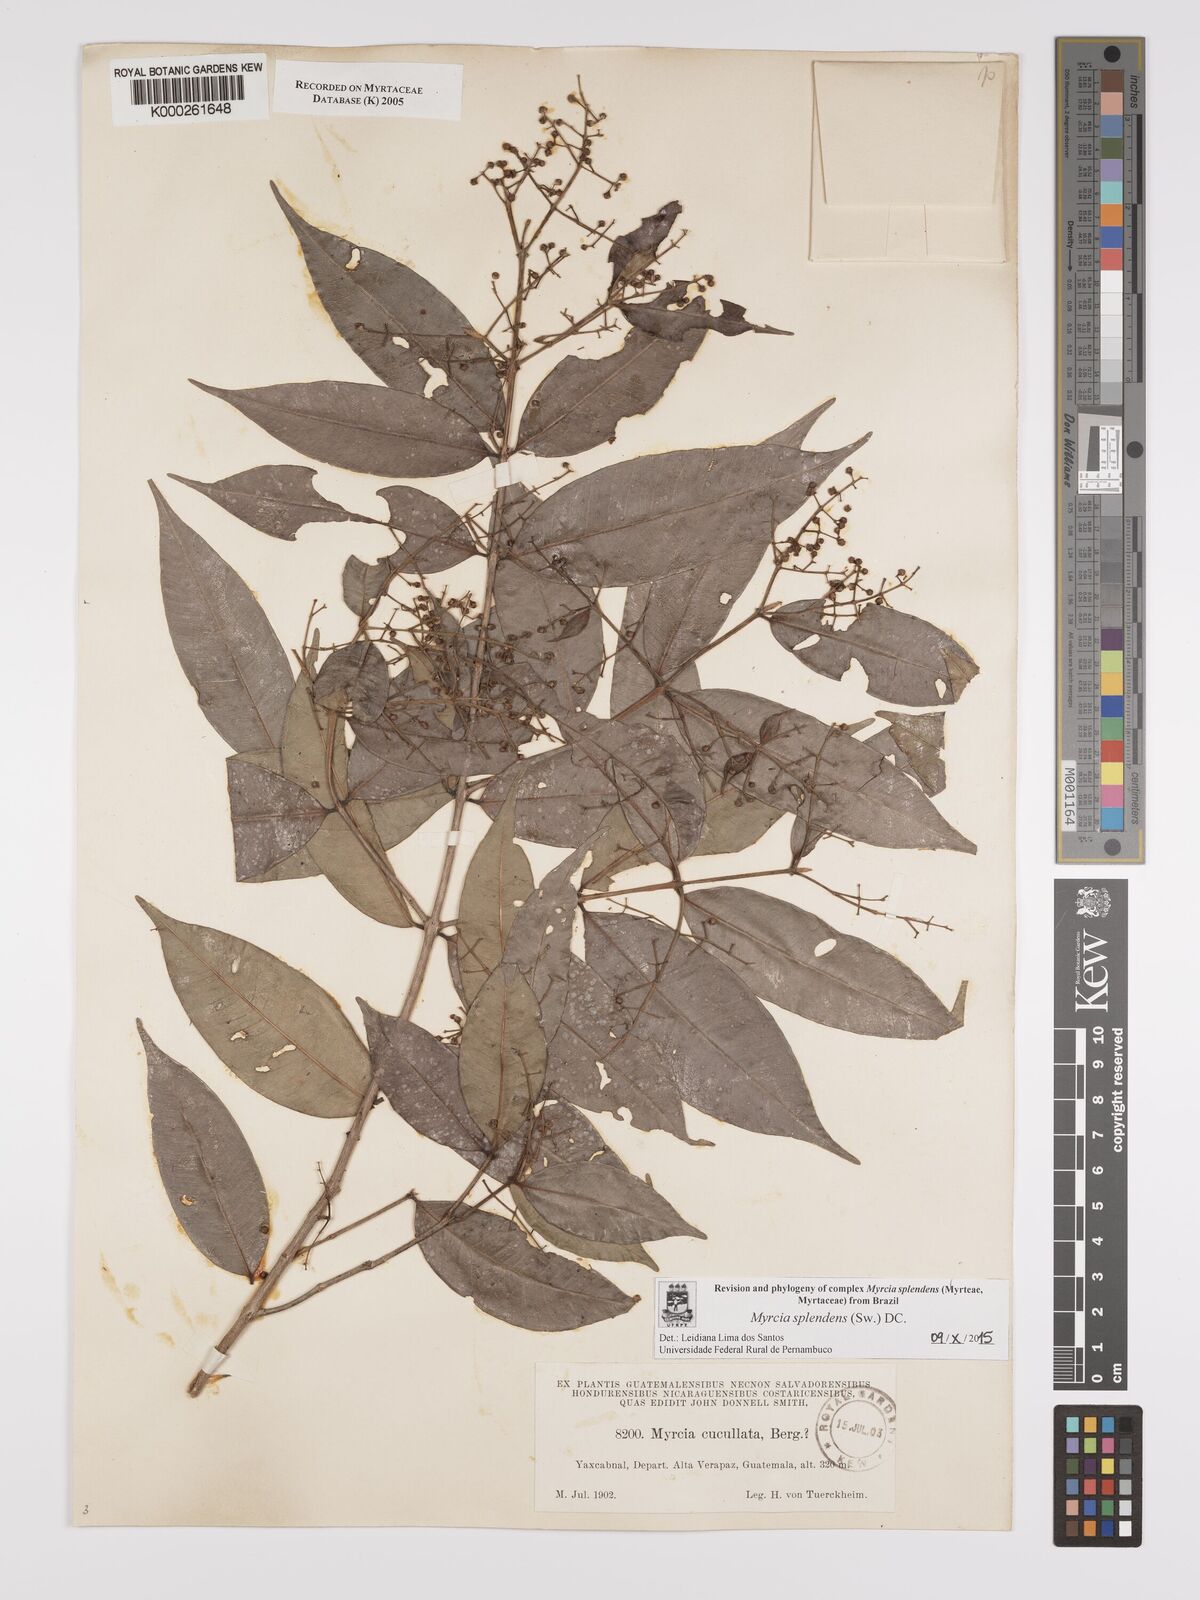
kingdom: Plantae
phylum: Tracheophyta
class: Magnoliopsida
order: Myrtales
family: Myrtaceae
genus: Myrcia
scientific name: Myrcia cucullata
